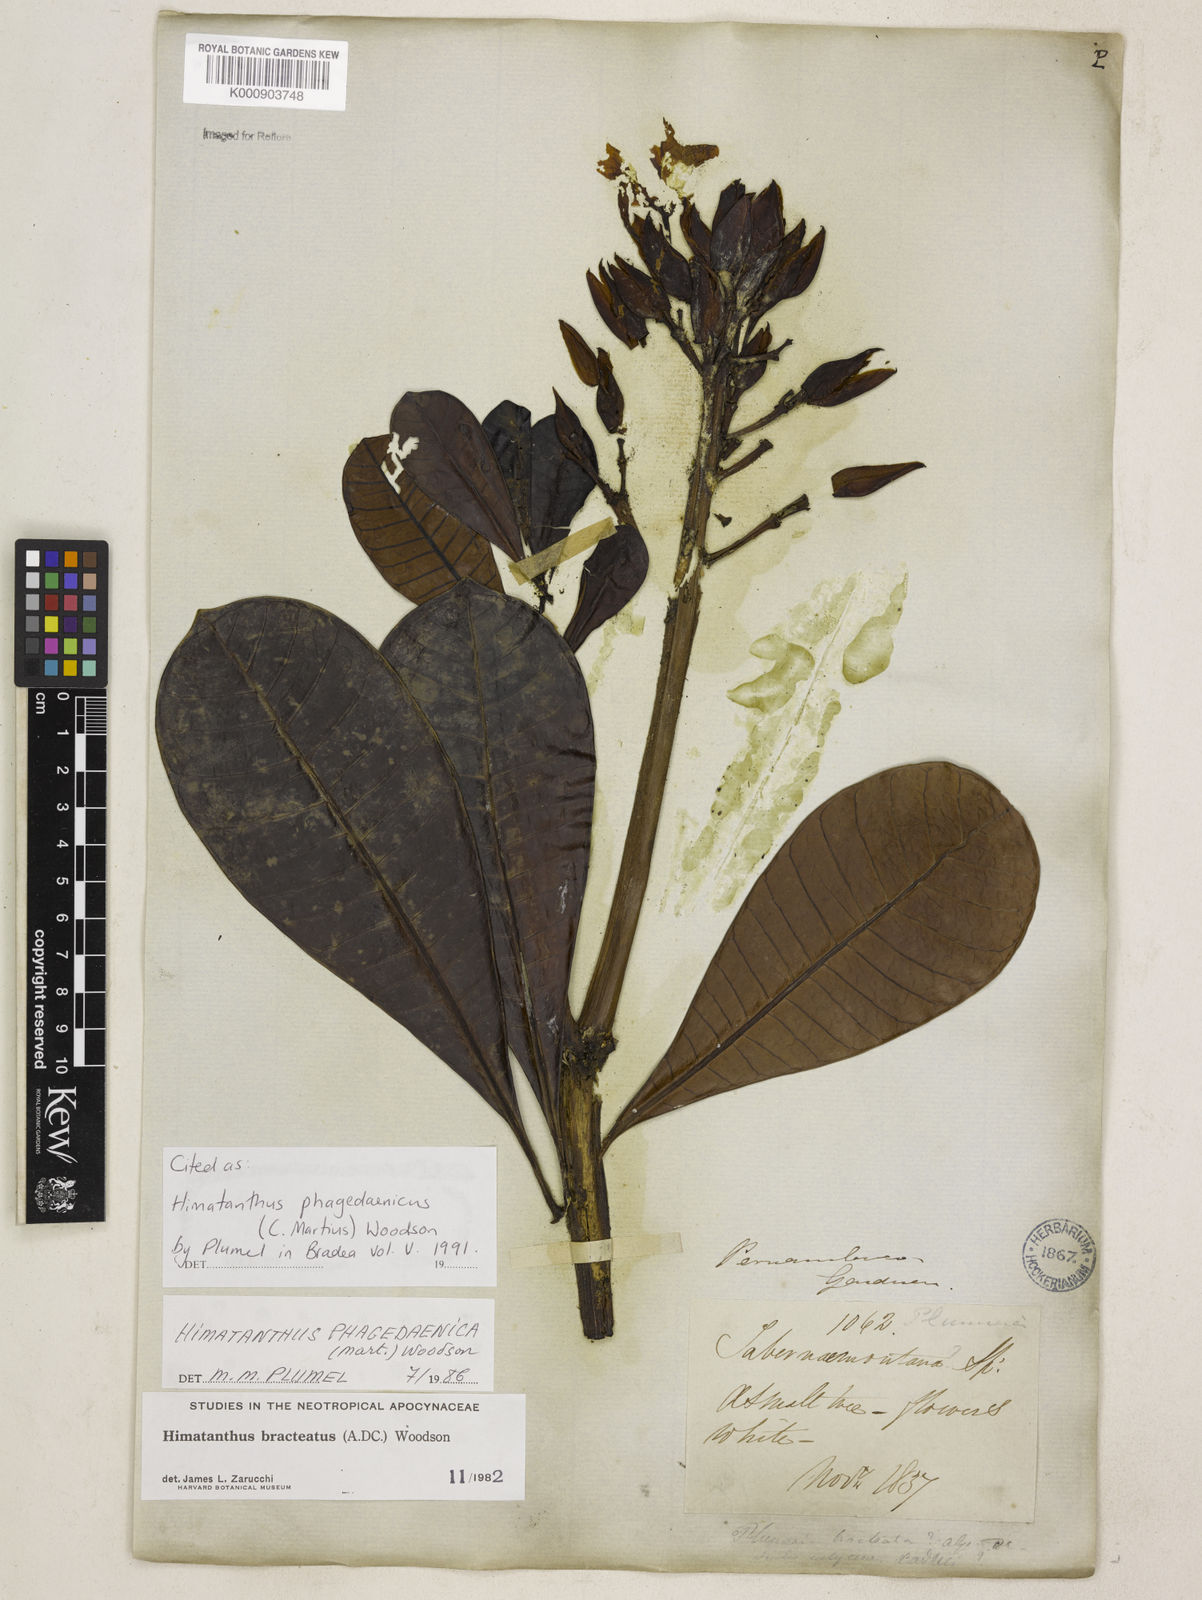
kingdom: Plantae
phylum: Tracheophyta
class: Magnoliopsida
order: Gentianales
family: Apocynaceae
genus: Himatanthus
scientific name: Himatanthus phagedaenicus
